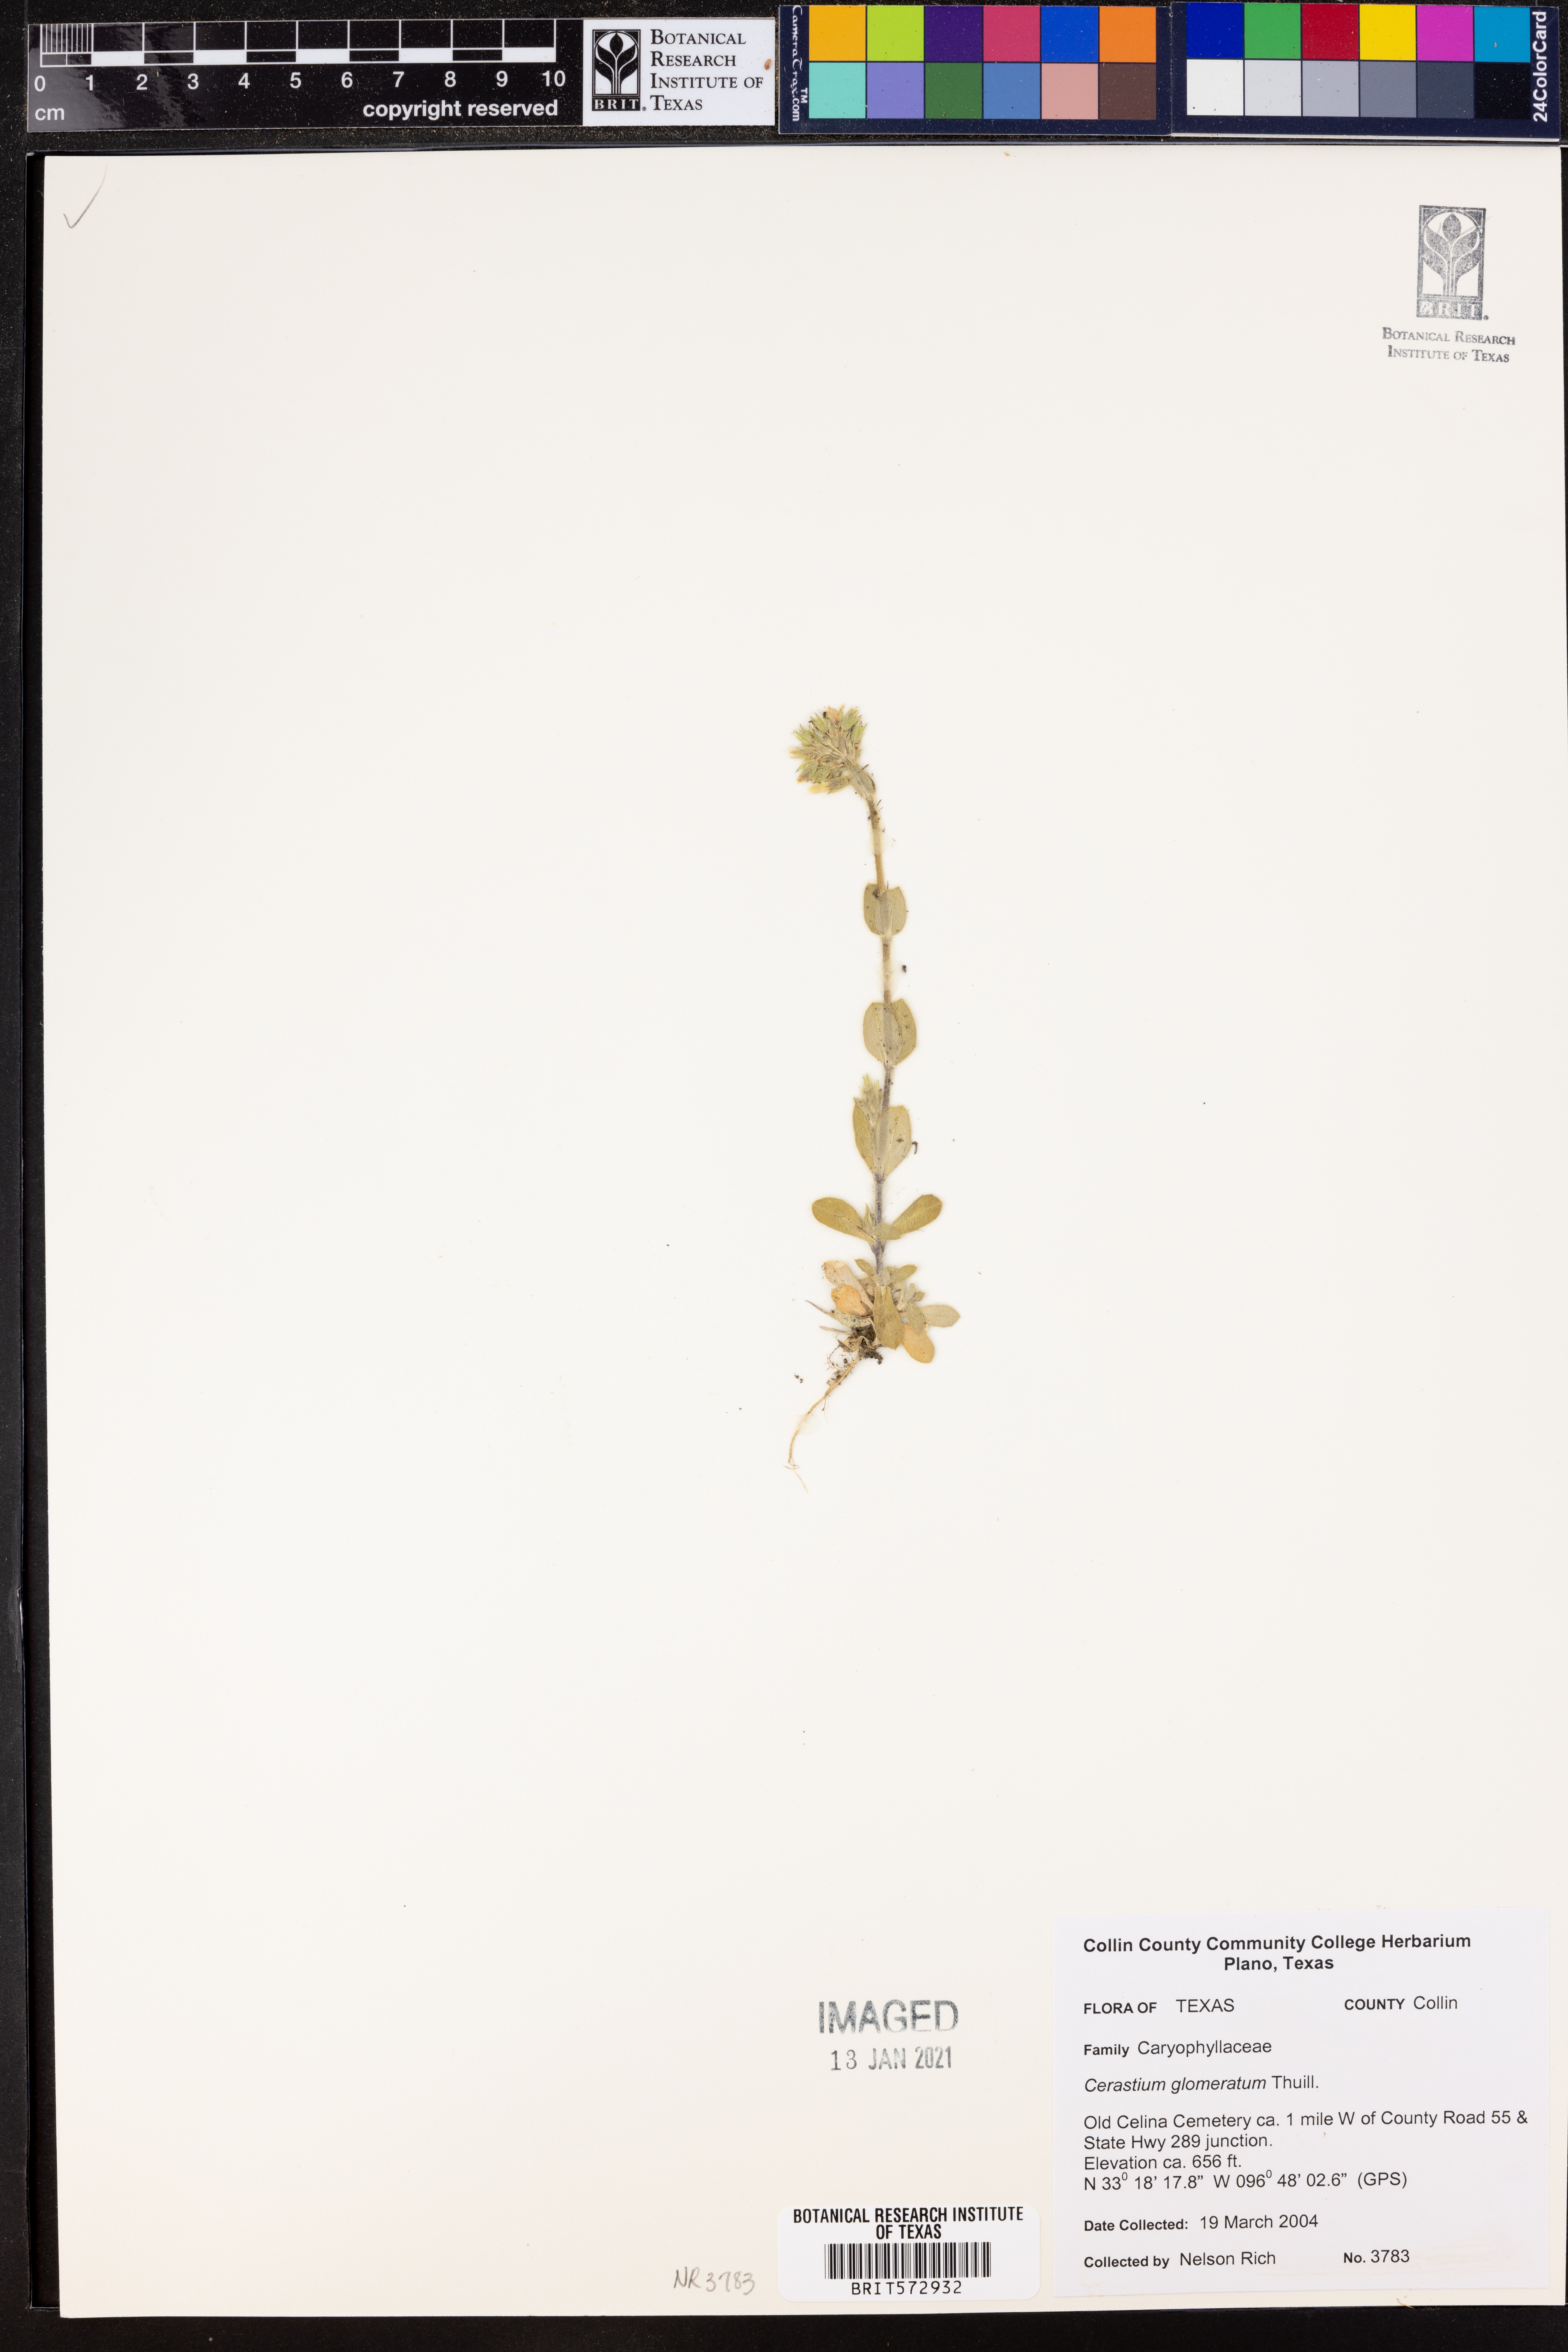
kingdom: Plantae
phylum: Tracheophyta
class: Magnoliopsida
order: Caryophyllales
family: Caryophyllaceae
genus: Cerastium
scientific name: Cerastium glomeratum
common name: Sticky chickweed
